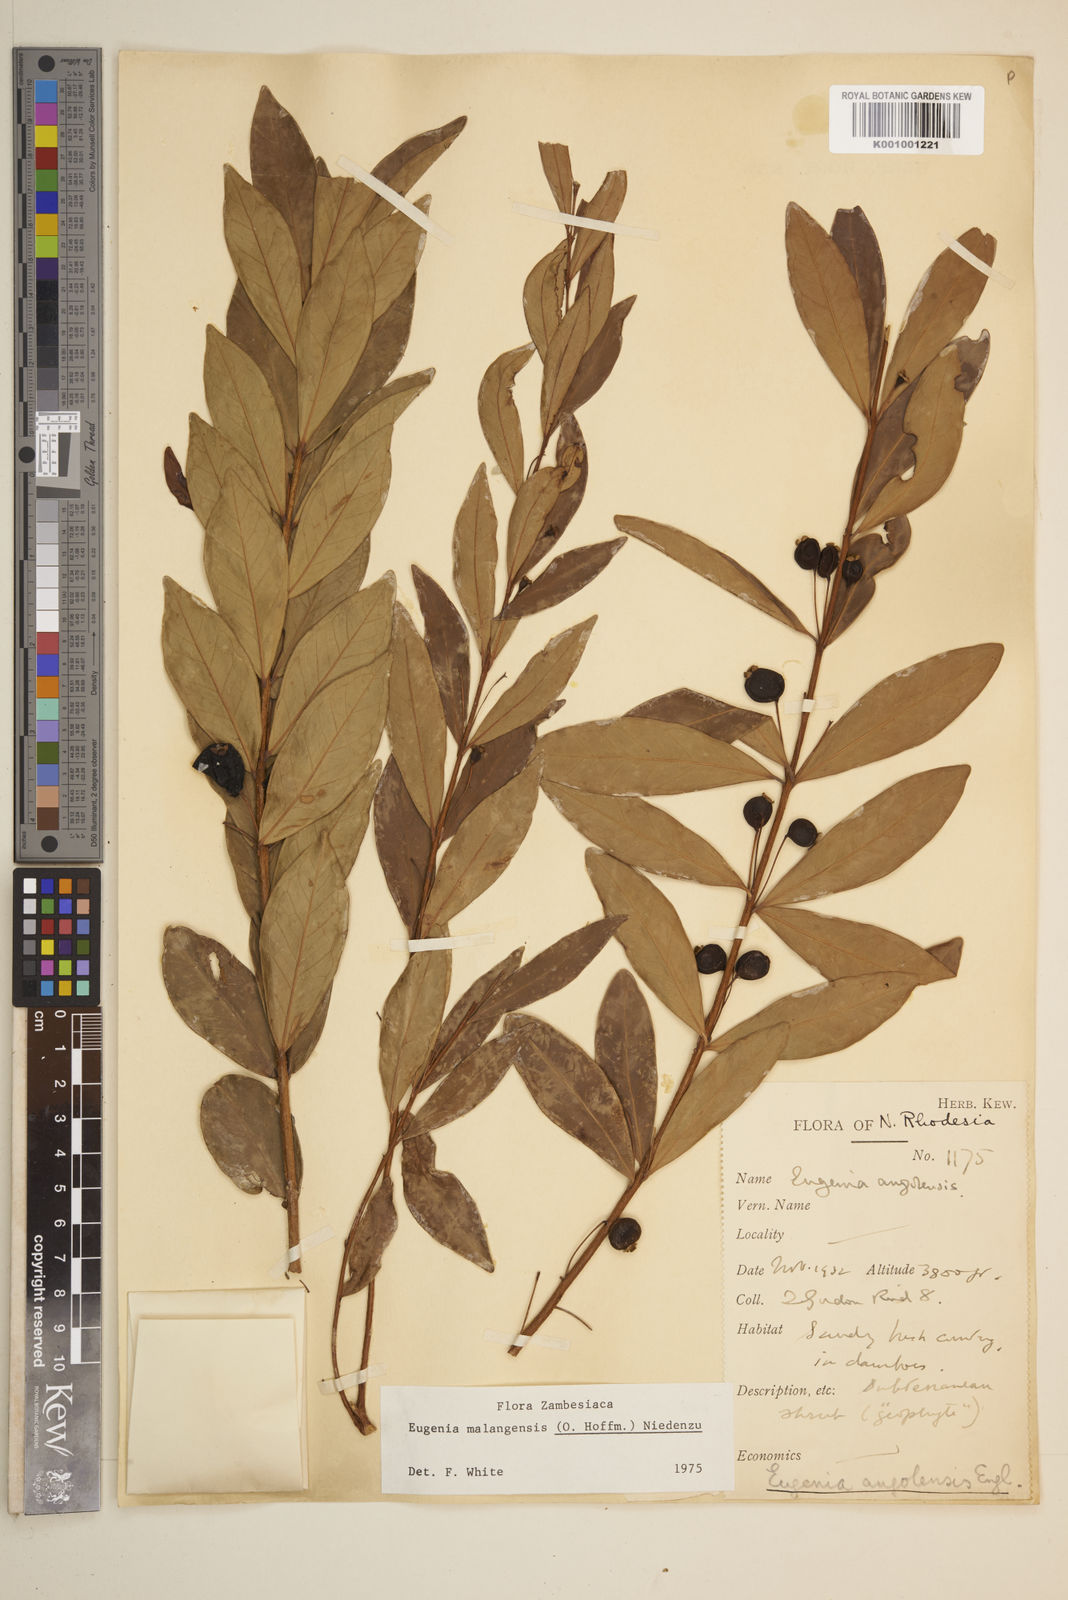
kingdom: Plantae
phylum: Tracheophyta
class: Magnoliopsida
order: Myrtales
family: Myrtaceae
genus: Eugenia
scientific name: Eugenia malangensis
